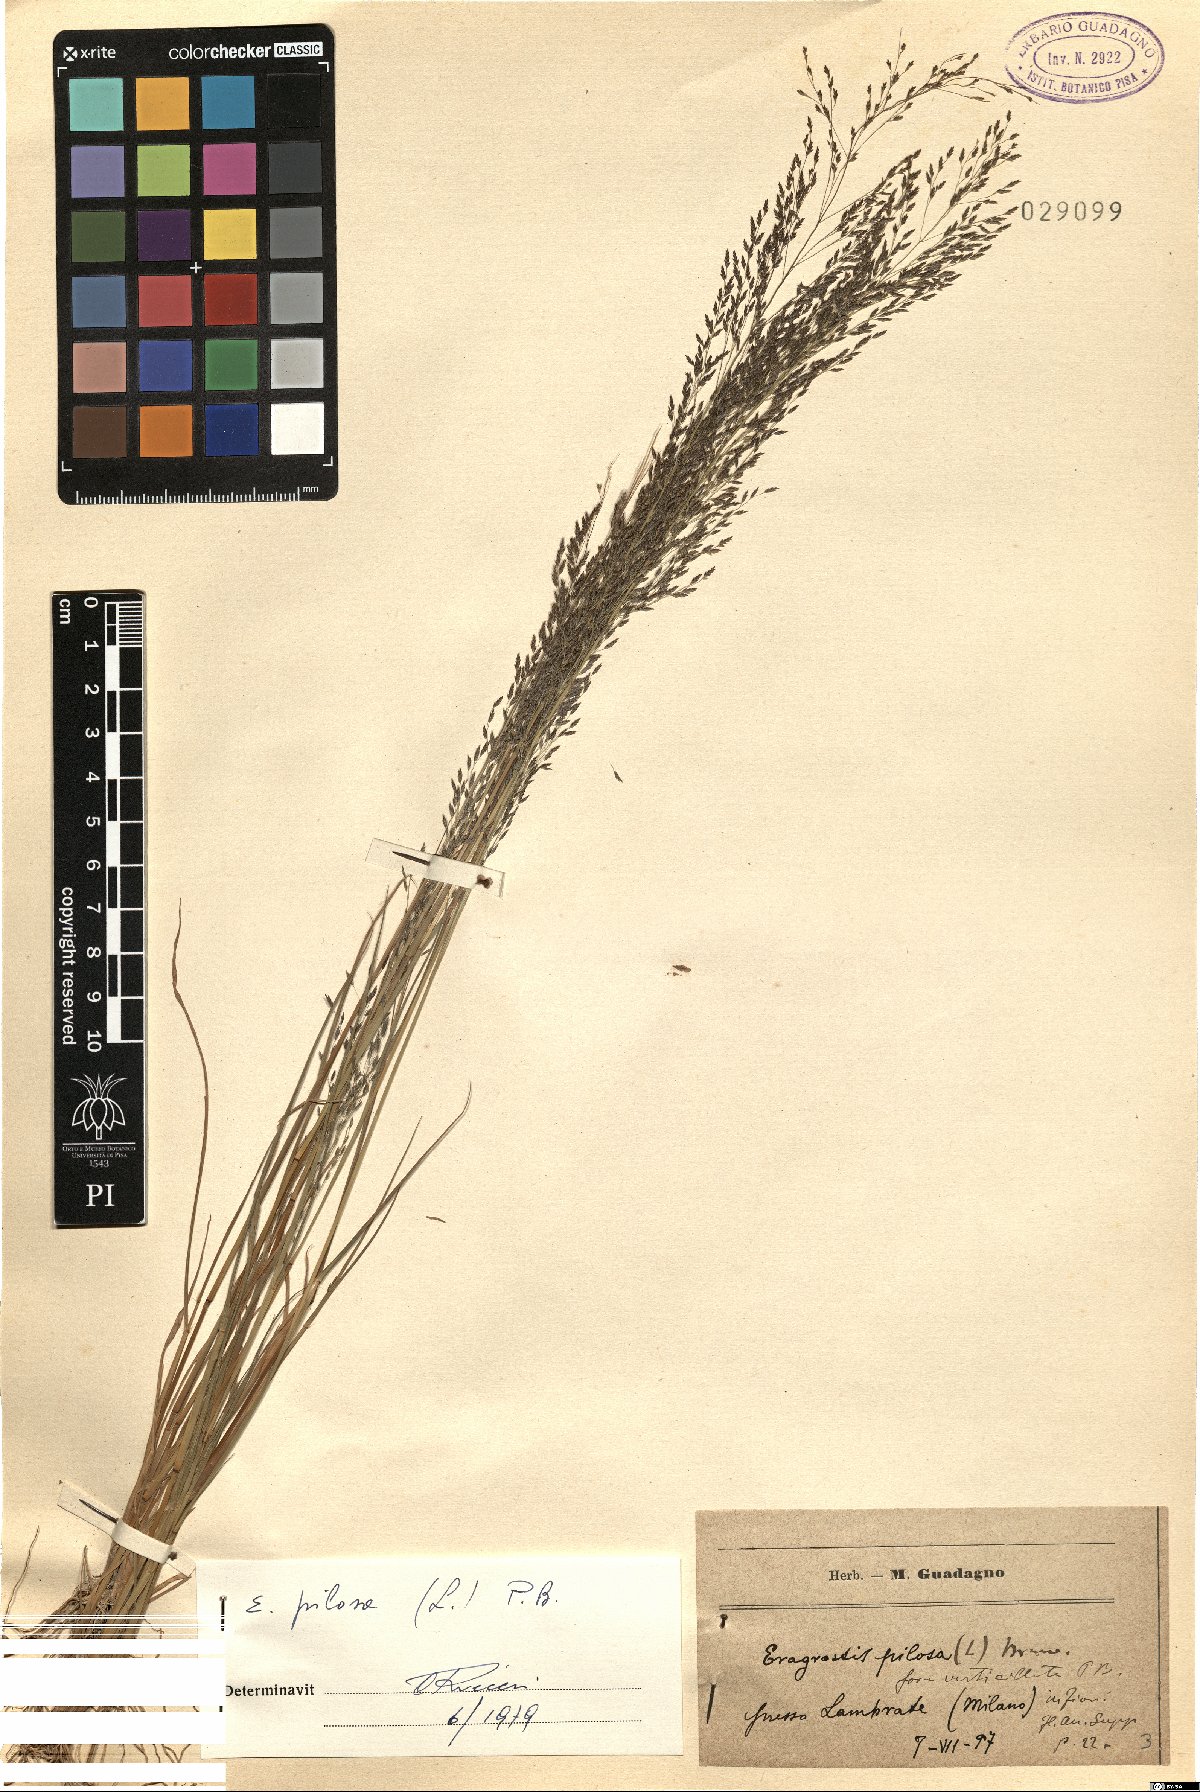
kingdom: Plantae
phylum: Tracheophyta
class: Liliopsida
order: Poales
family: Poaceae
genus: Eragrostis
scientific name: Eragrostis pilosa
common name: Indian lovegrass
